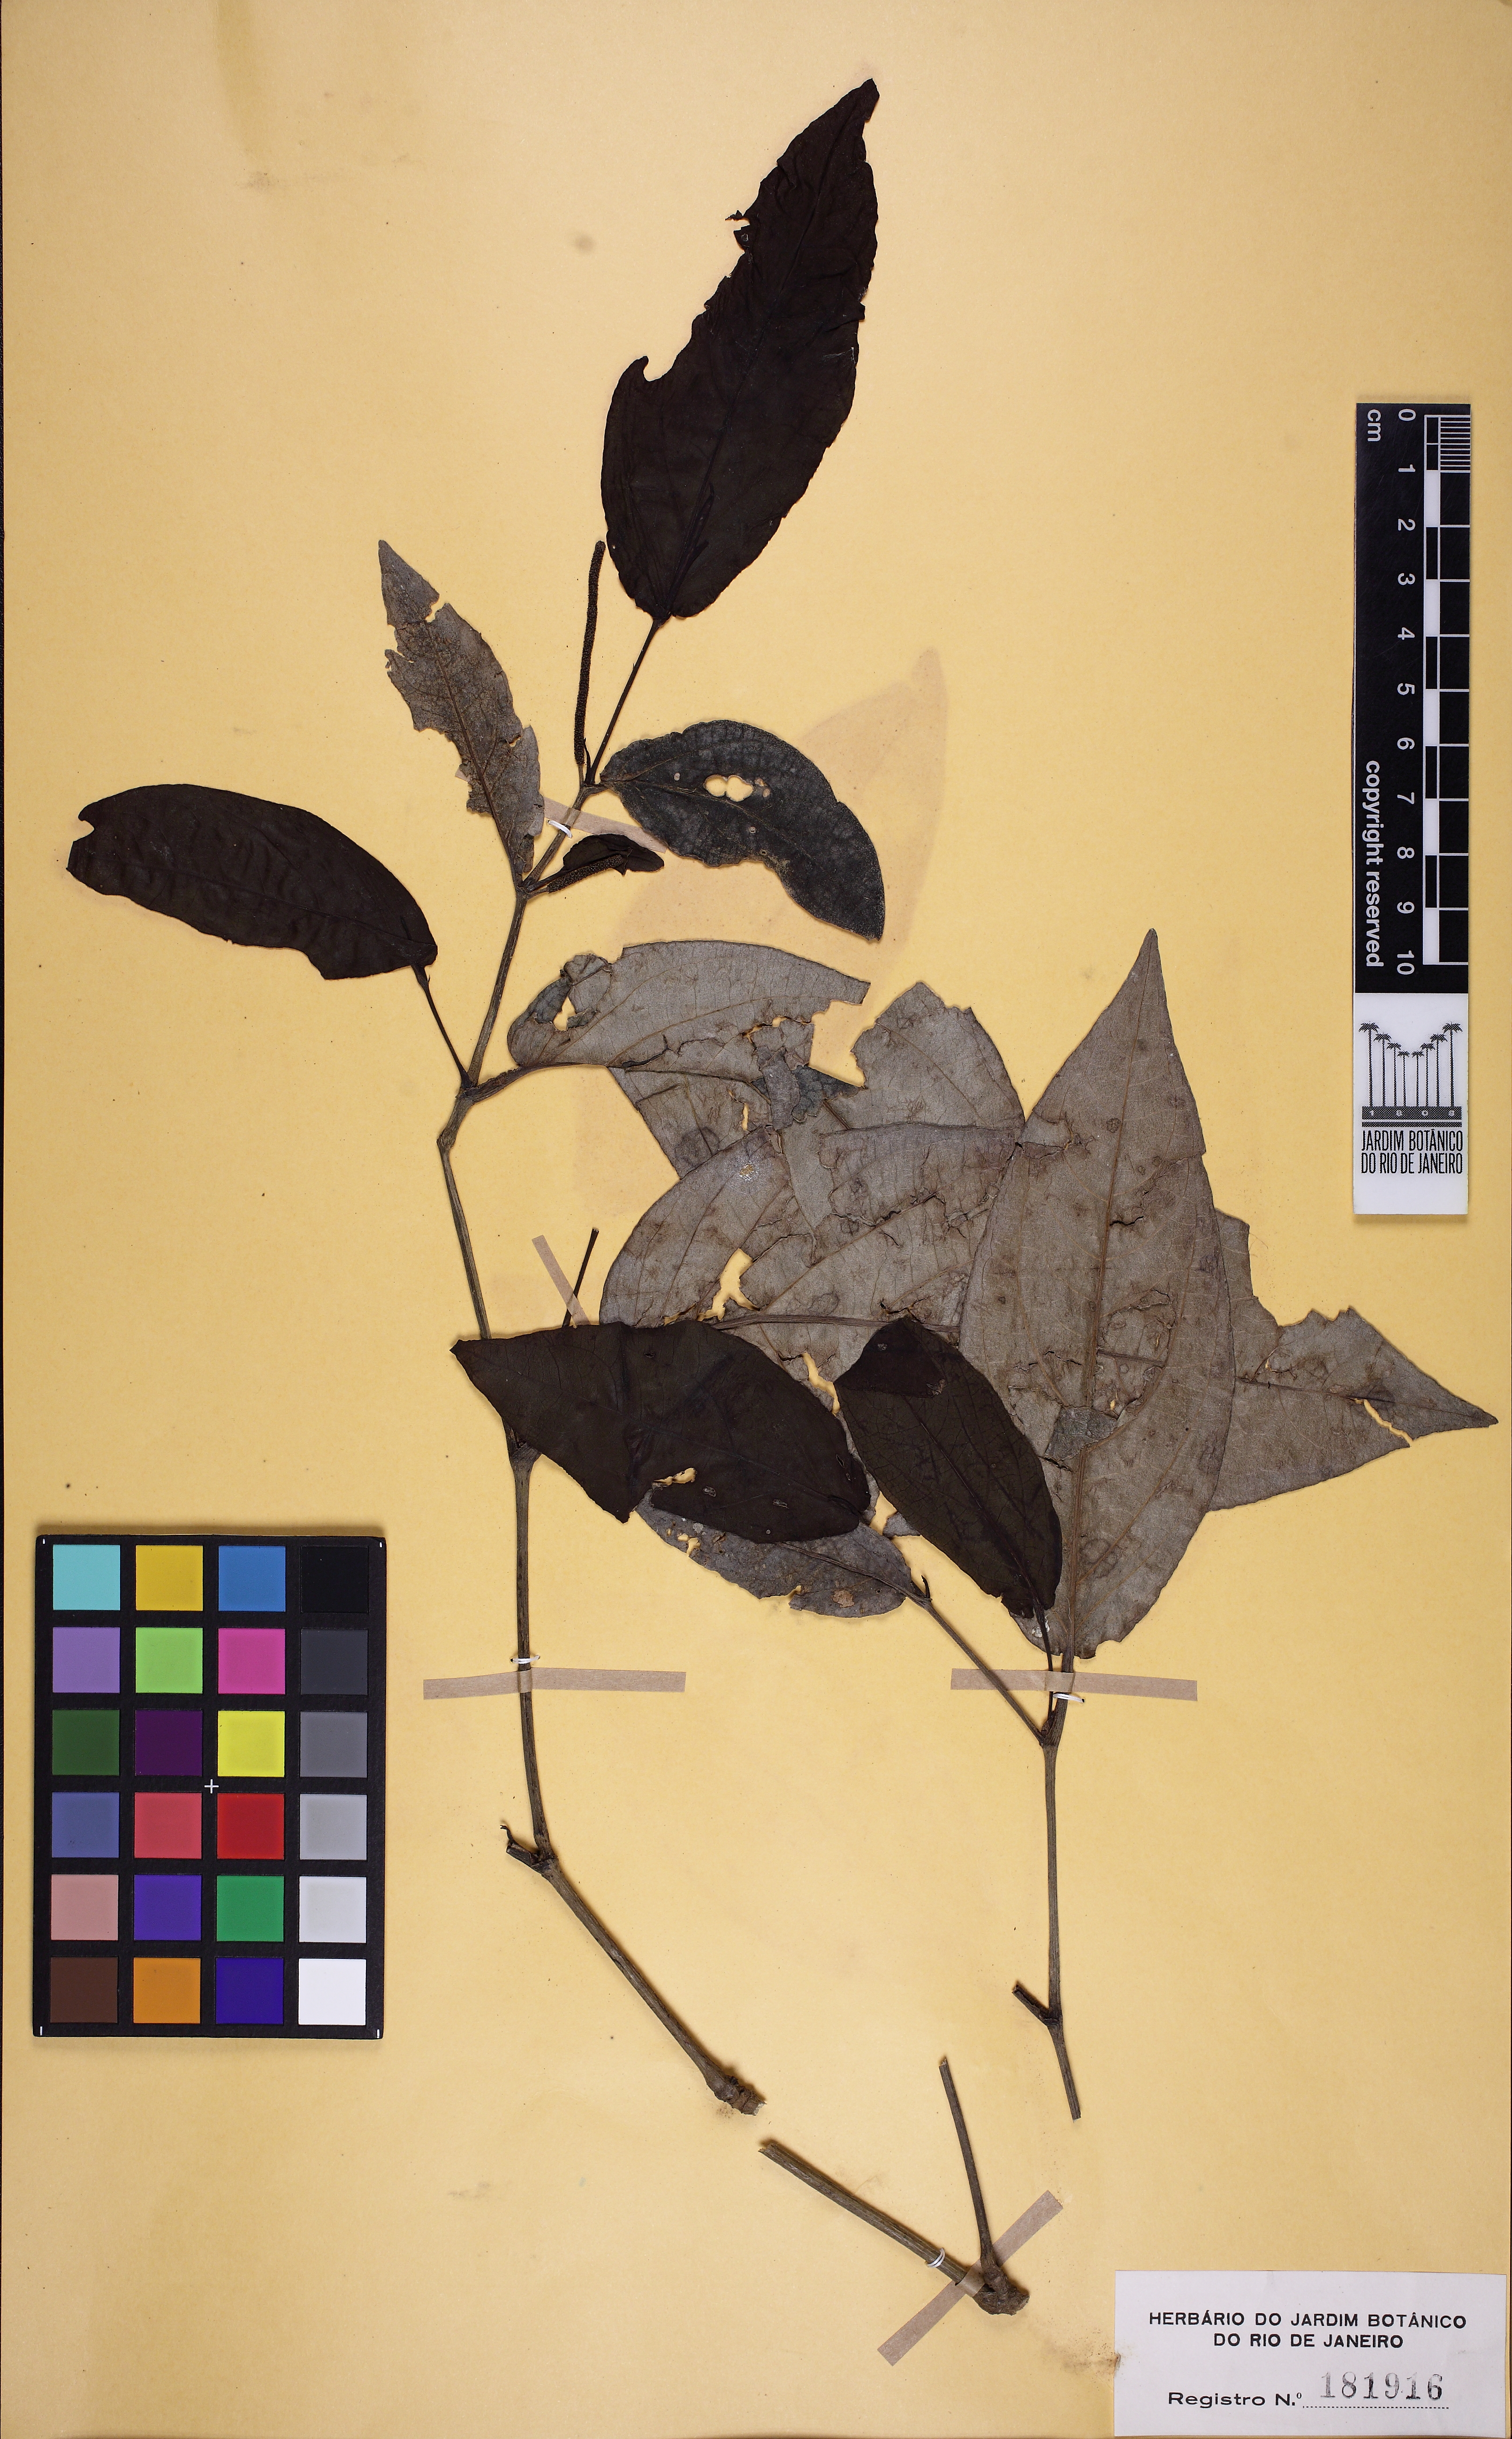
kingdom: Plantae
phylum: Tracheophyta
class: Magnoliopsida
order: Piperales
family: Piperaceae
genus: Piper
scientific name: Piper sampaioi
